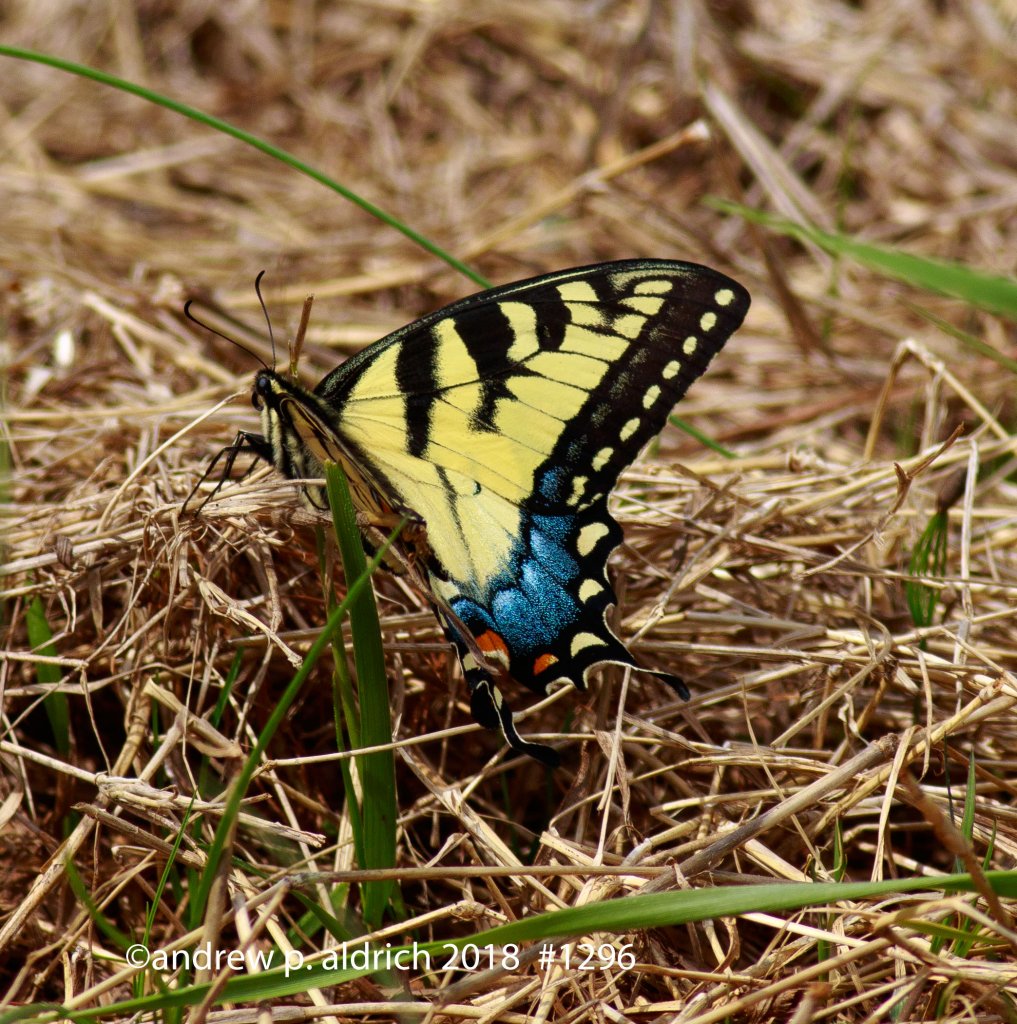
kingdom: Animalia
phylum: Arthropoda
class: Insecta
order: Lepidoptera
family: Papilionidae
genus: Pterourus
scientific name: Pterourus glaucus
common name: Eastern Tiger Swallowtail
